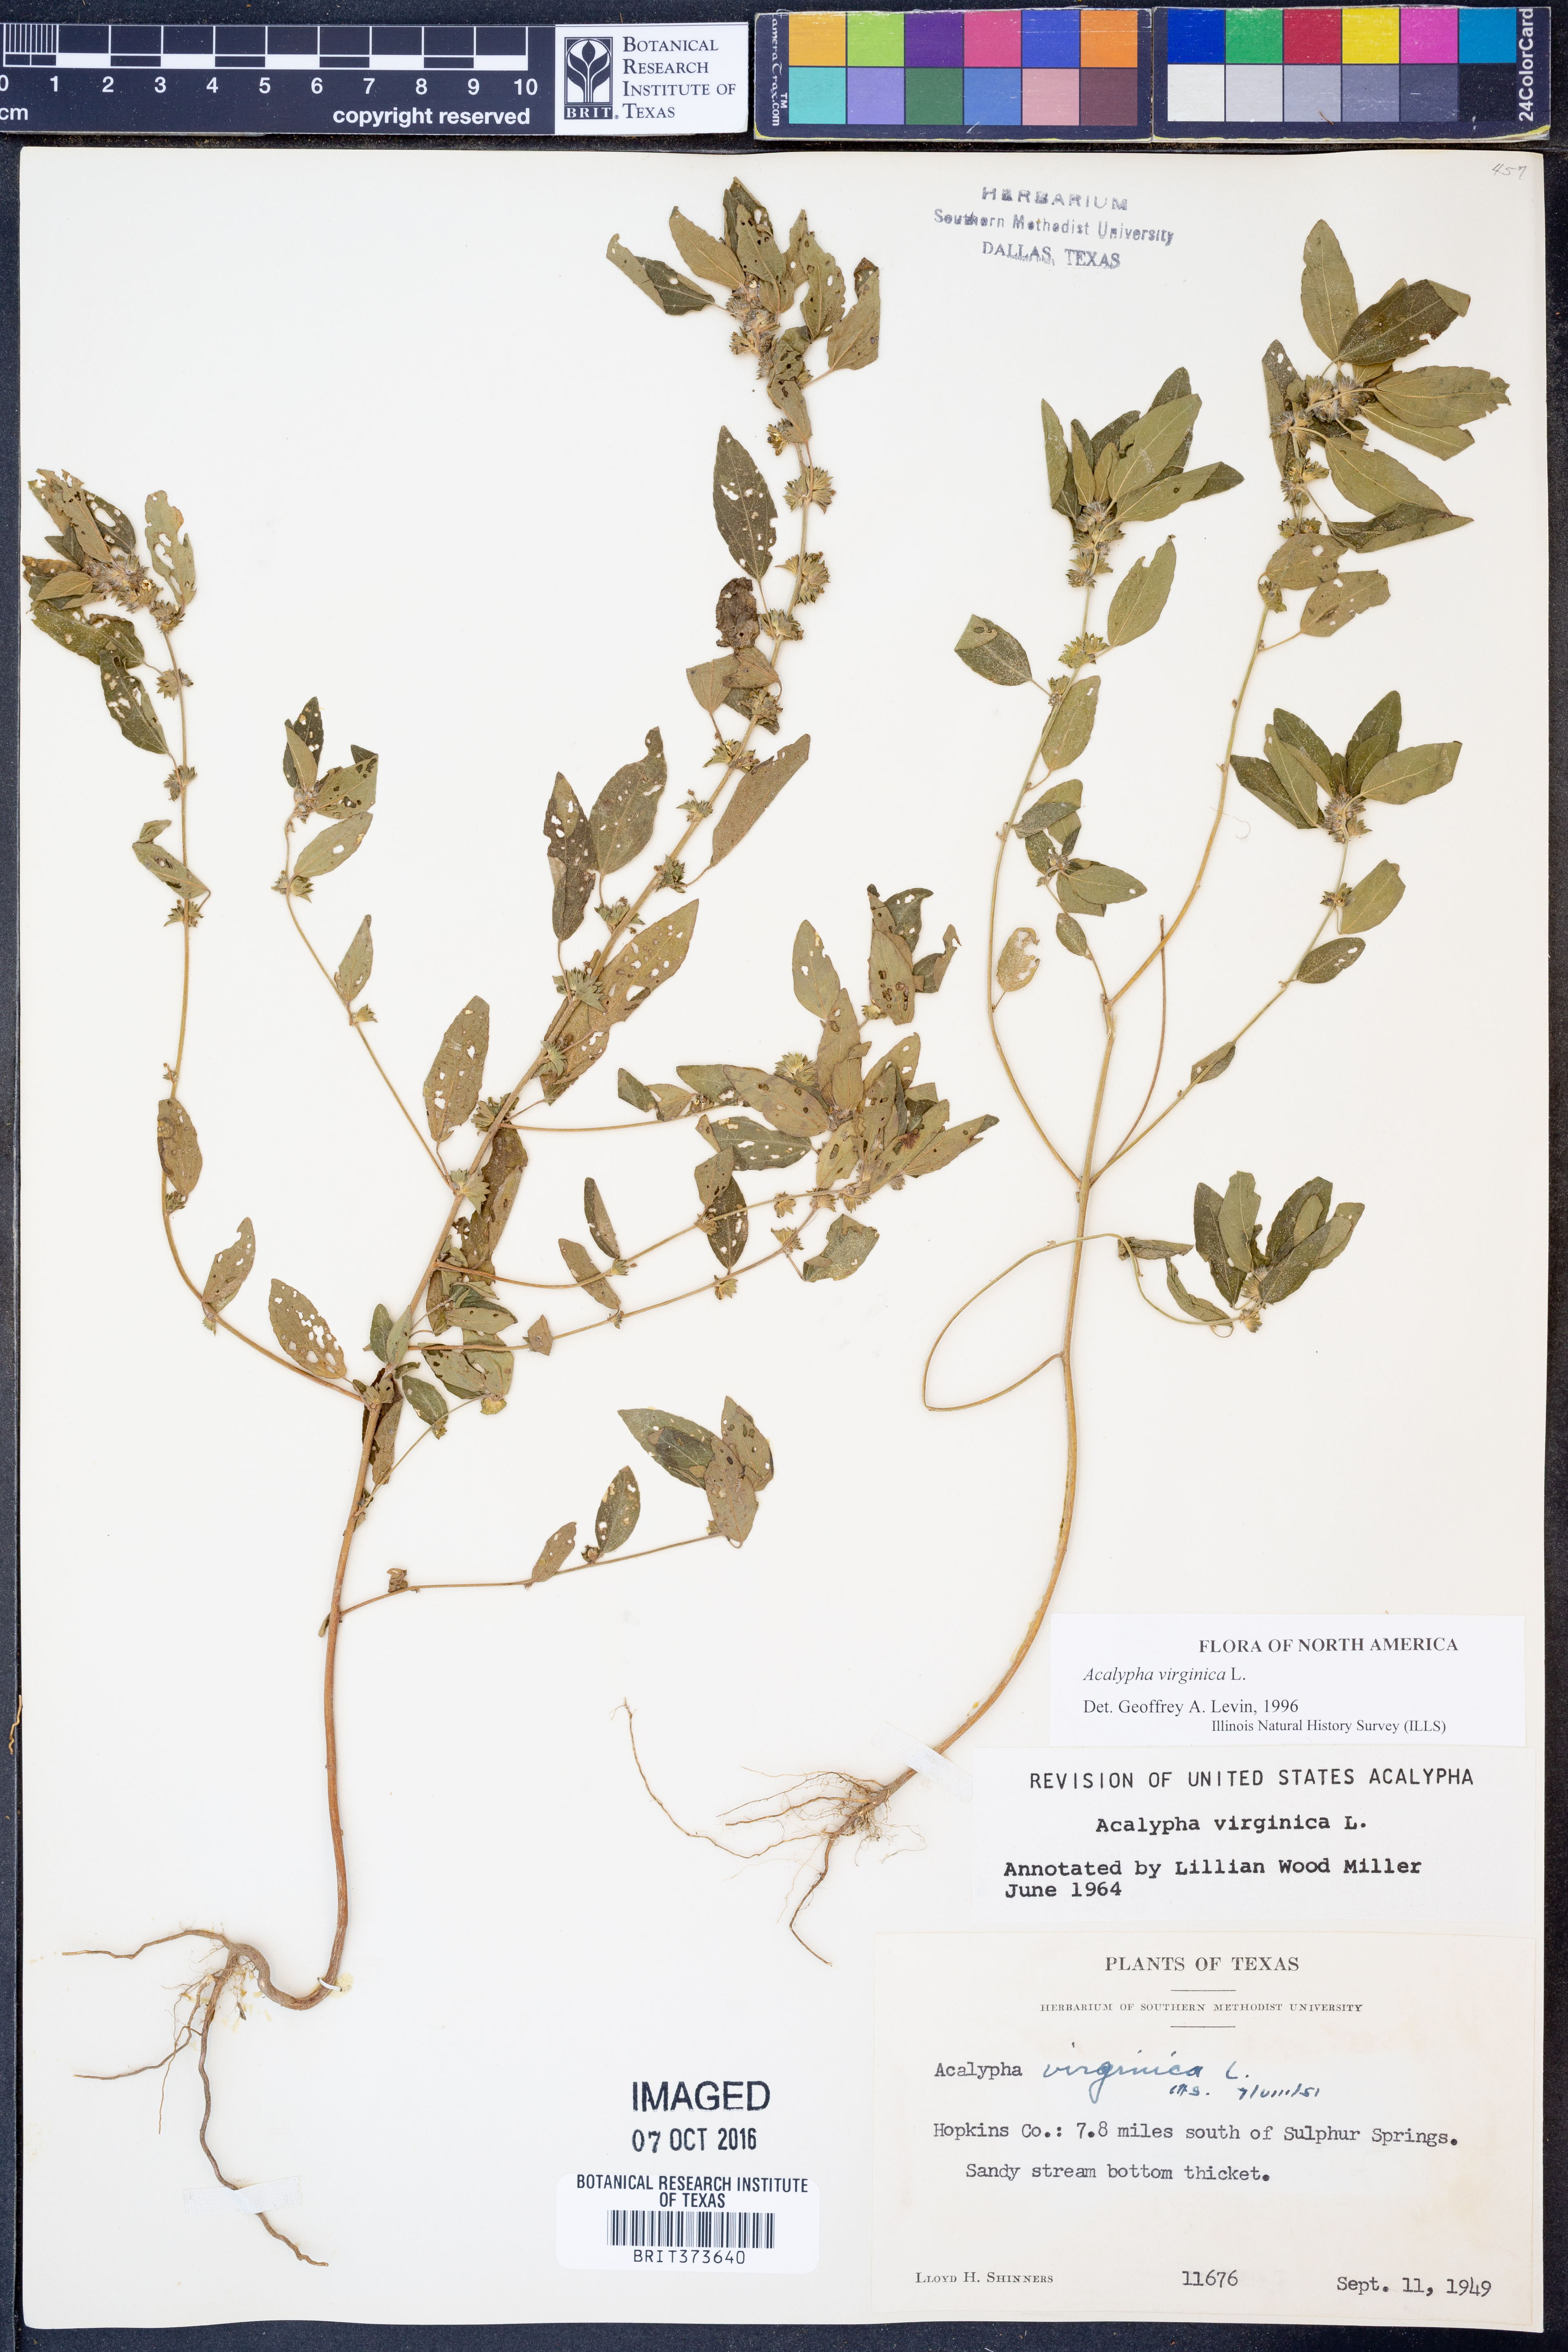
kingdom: Plantae
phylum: Tracheophyta
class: Magnoliopsida
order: Malpighiales
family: Euphorbiaceae
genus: Acalypha
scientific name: Acalypha virginica
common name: Virginia copperleaf
